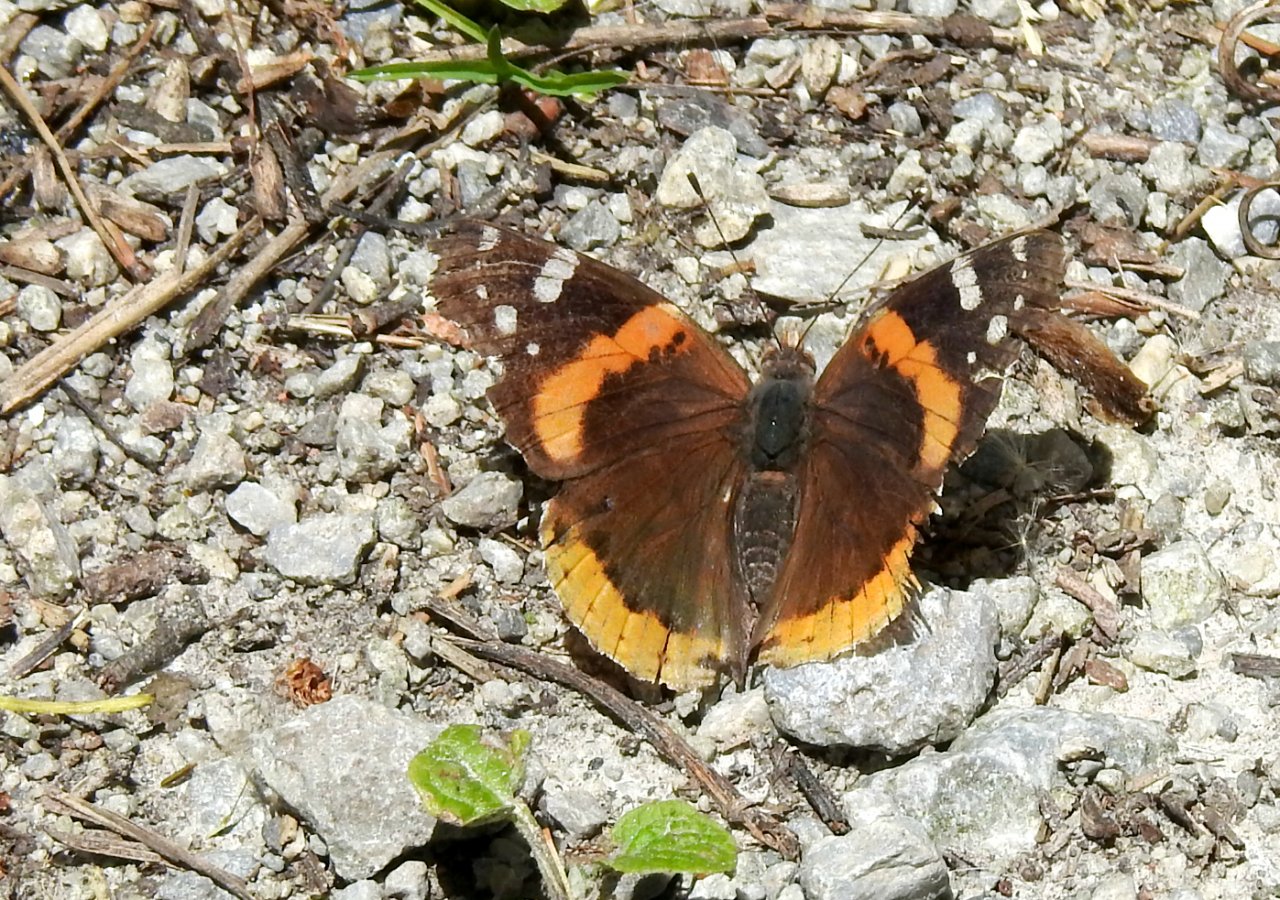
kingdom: Animalia
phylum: Arthropoda
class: Insecta
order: Lepidoptera
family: Nymphalidae
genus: Vanessa
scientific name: Vanessa atalanta
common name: Red Admiral
